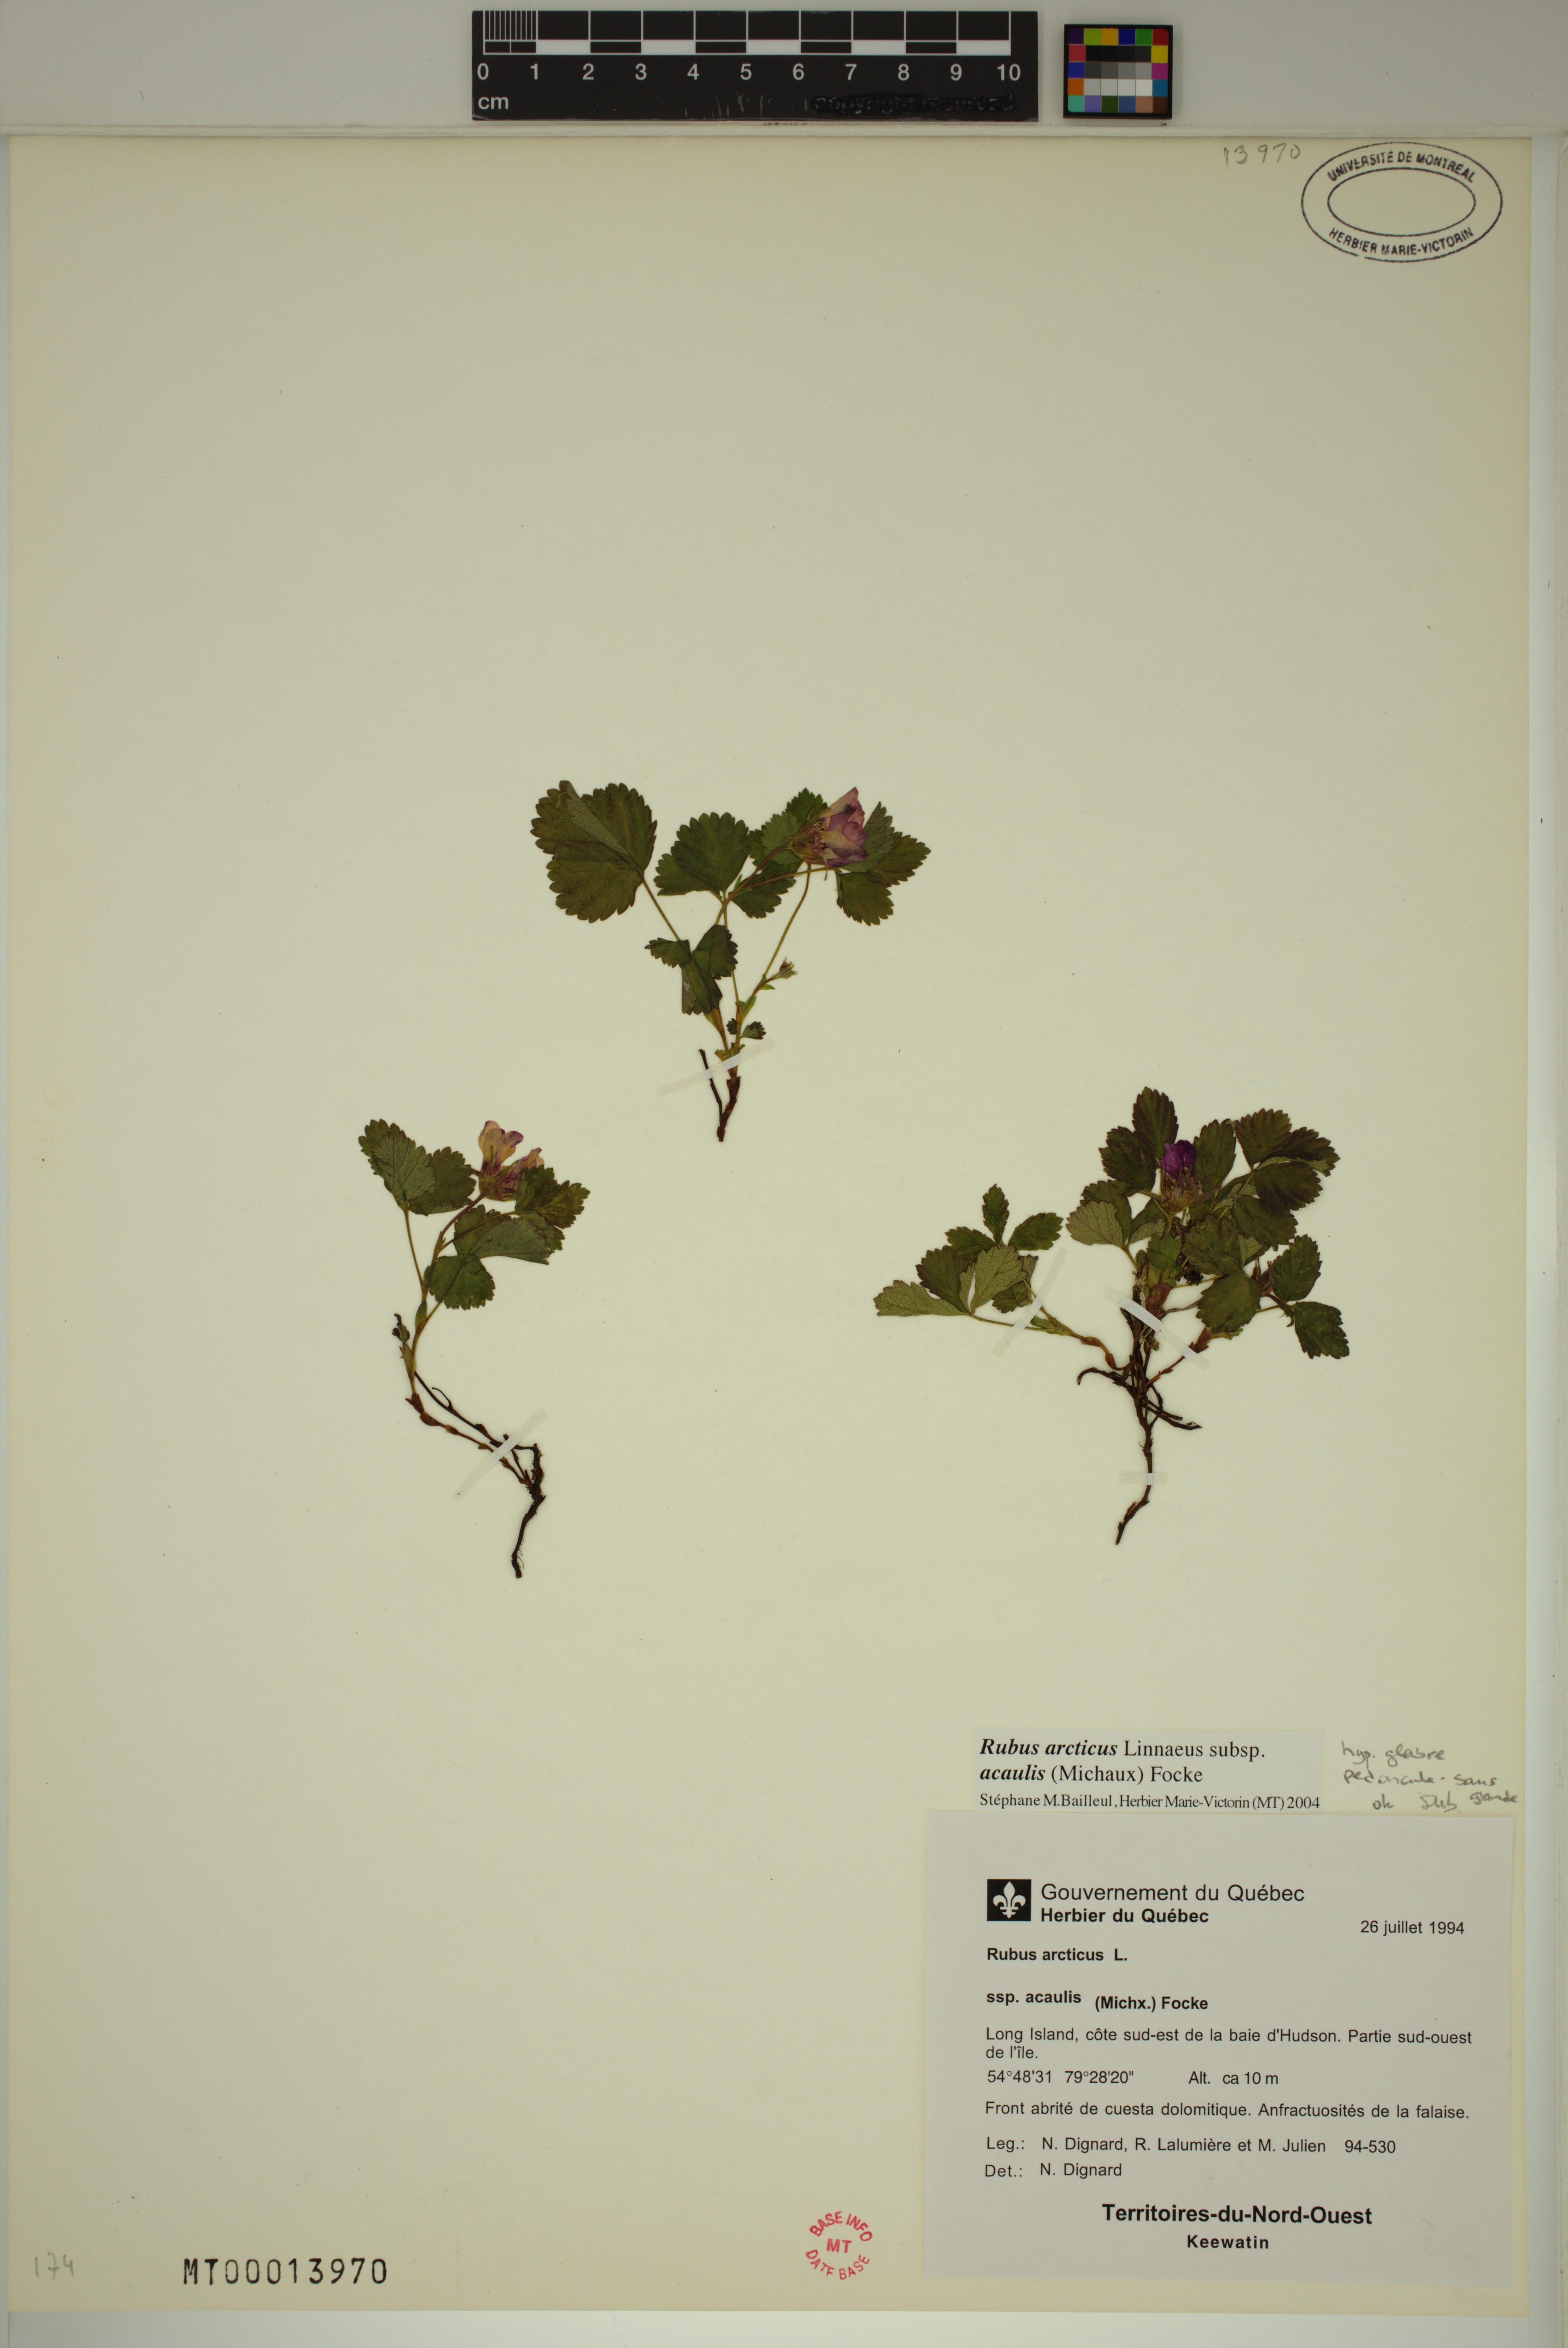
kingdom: Plantae
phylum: Tracheophyta
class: Magnoliopsida
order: Rosales
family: Rosaceae
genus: Rubus
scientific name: Rubus arcticus
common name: Arctic bramble
